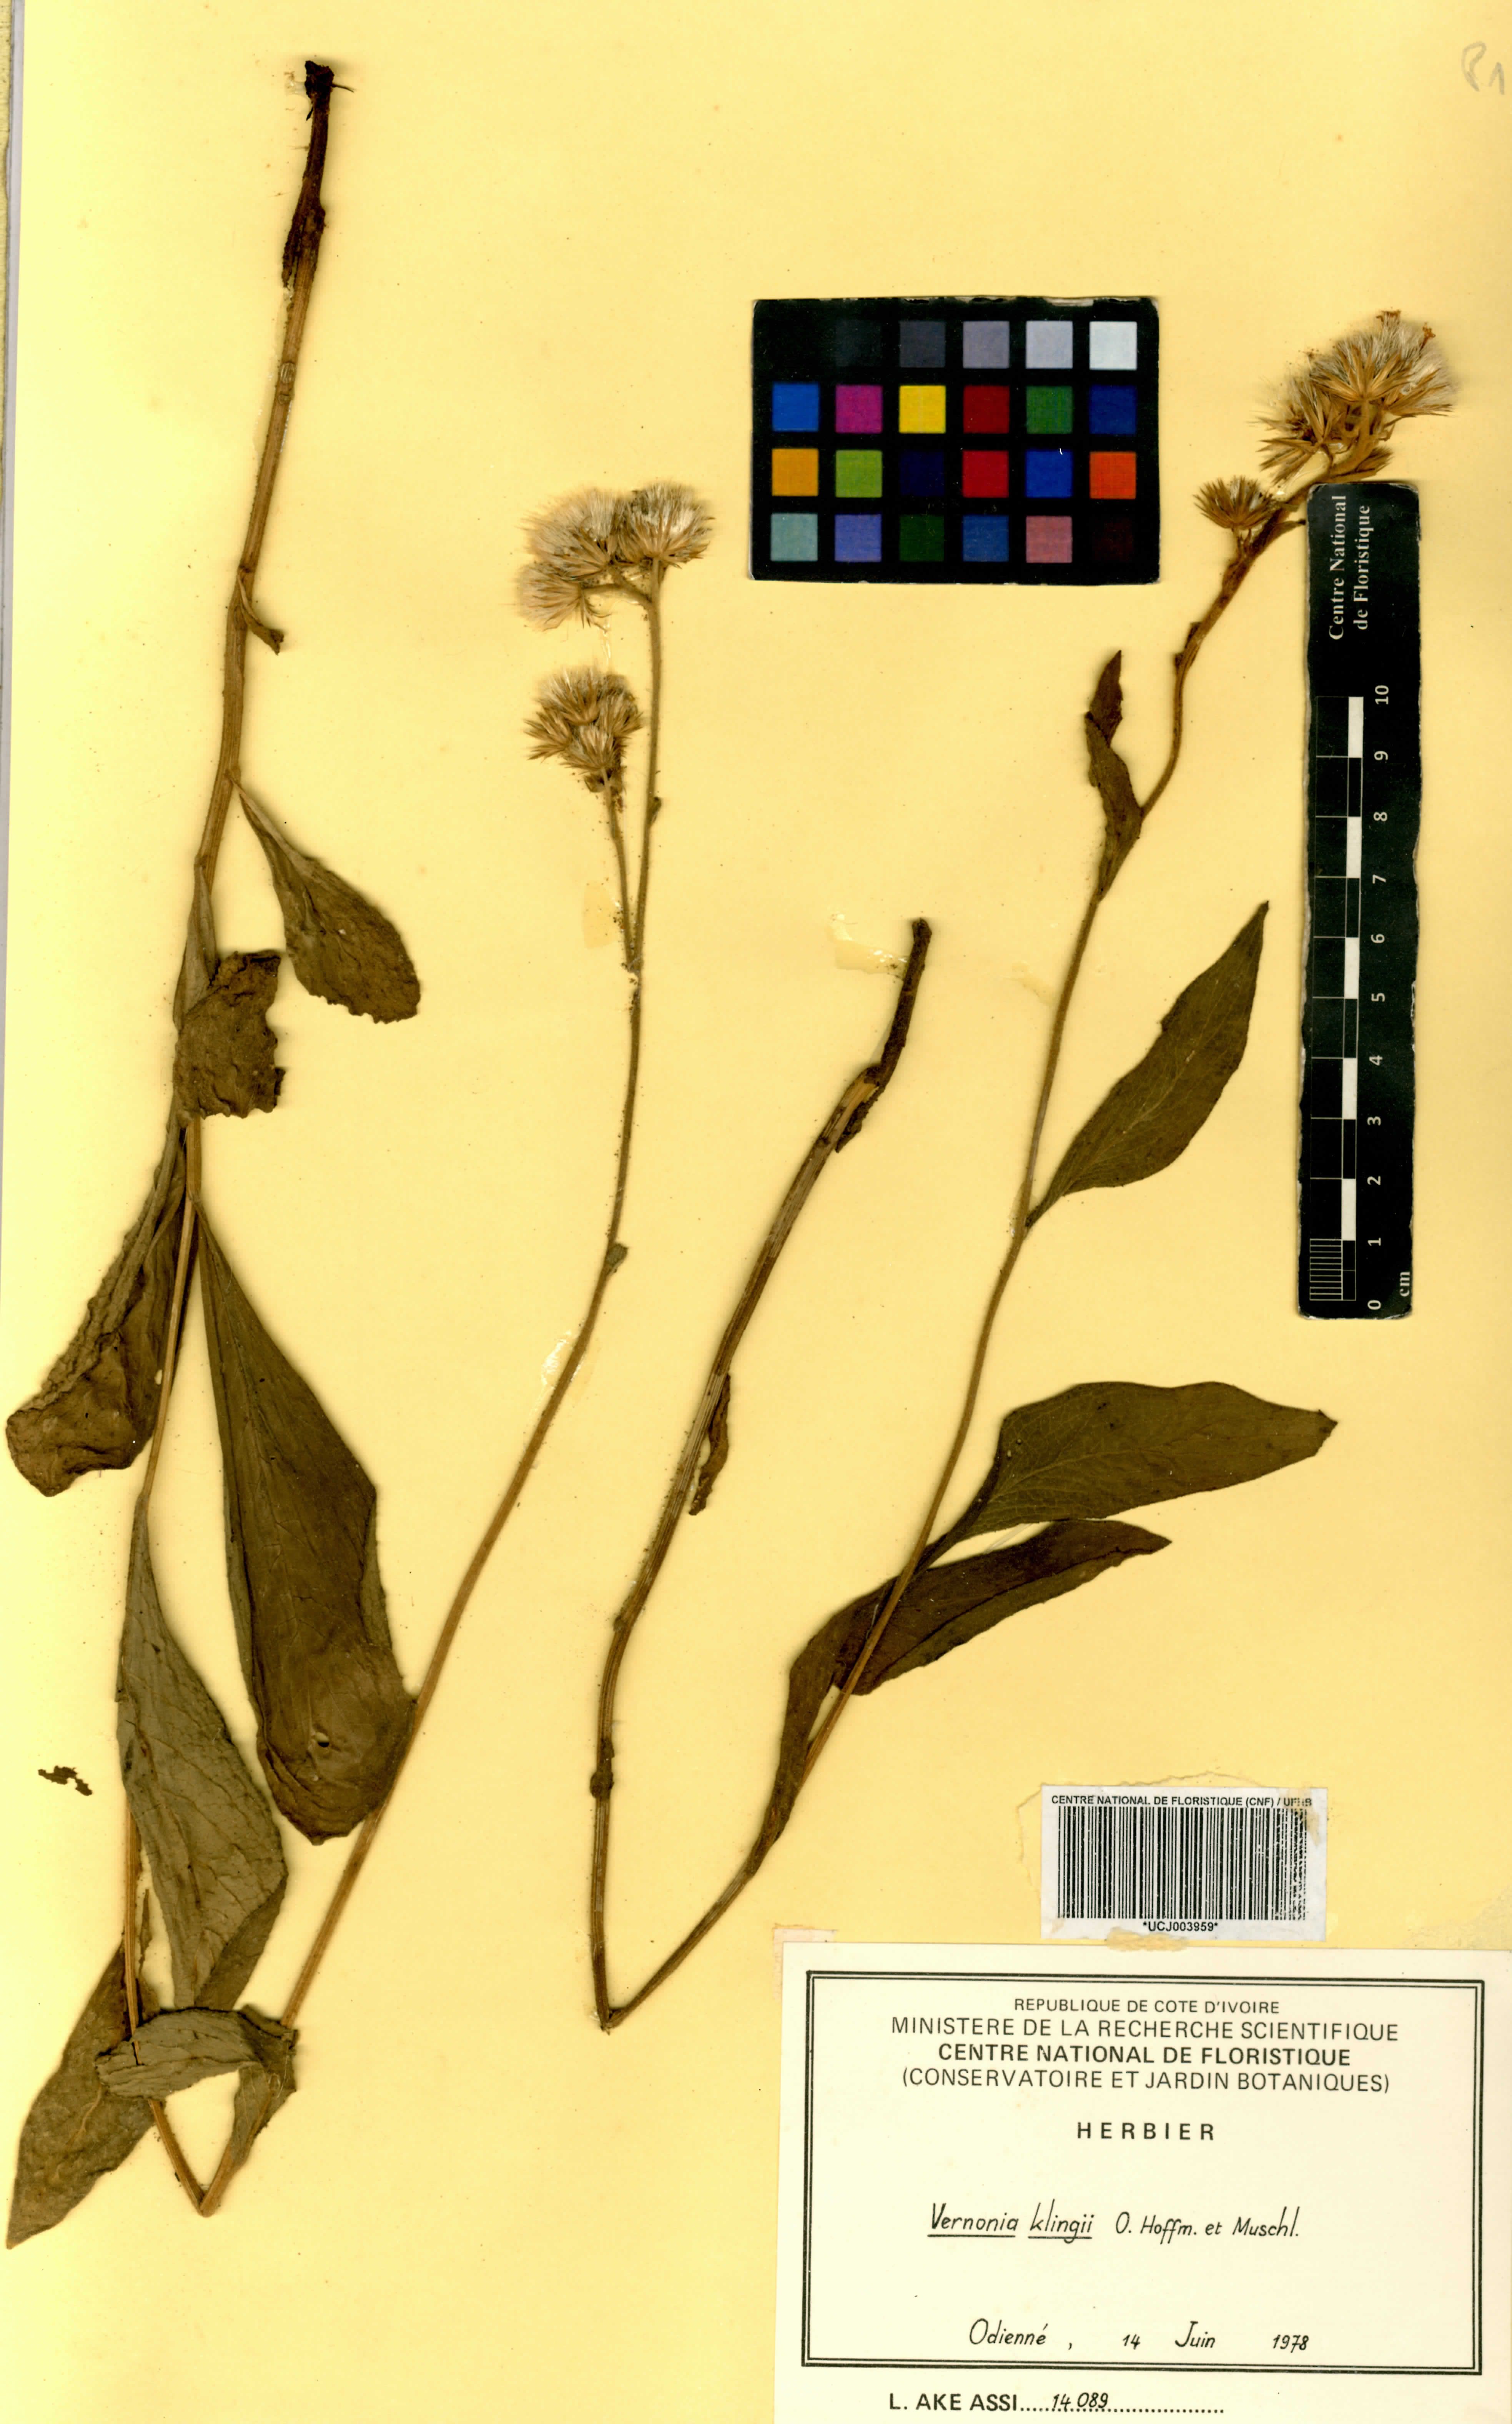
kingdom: Plantae
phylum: Tracheophyta
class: Magnoliopsida
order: Asterales
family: Asteraceae
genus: Vernoniastrum
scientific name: Vernoniastrum nestor
